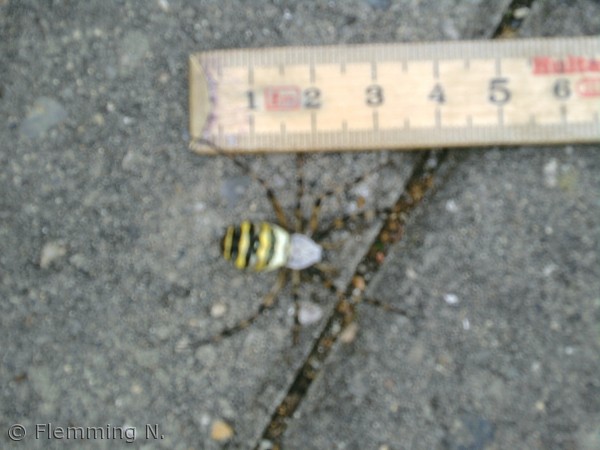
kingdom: Animalia
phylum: Arthropoda
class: Arachnida
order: Araneae
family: Araneidae
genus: Argiope
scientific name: Argiope bruennichi
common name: Hvepseedderkop
